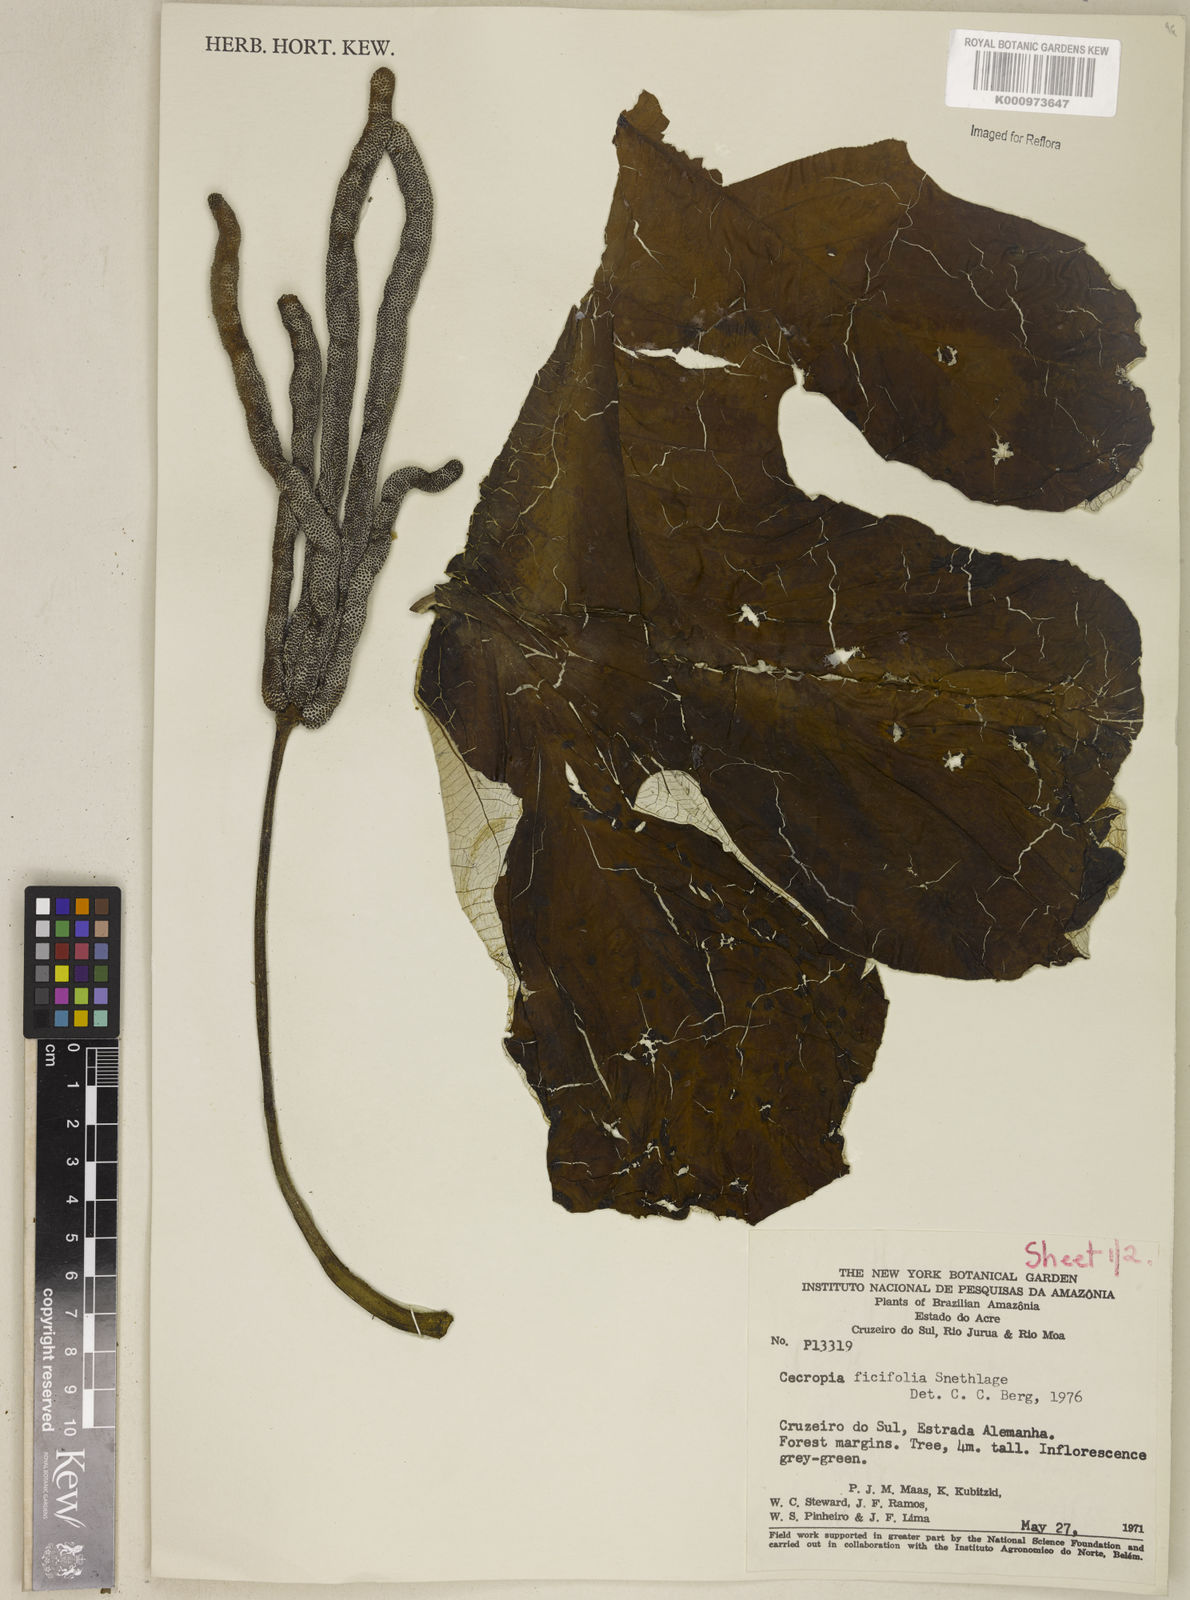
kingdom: Plantae
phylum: Tracheophyta
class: Magnoliopsida
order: Rosales
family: Urticaceae
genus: Cecropia
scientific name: Cecropia ficifolia
